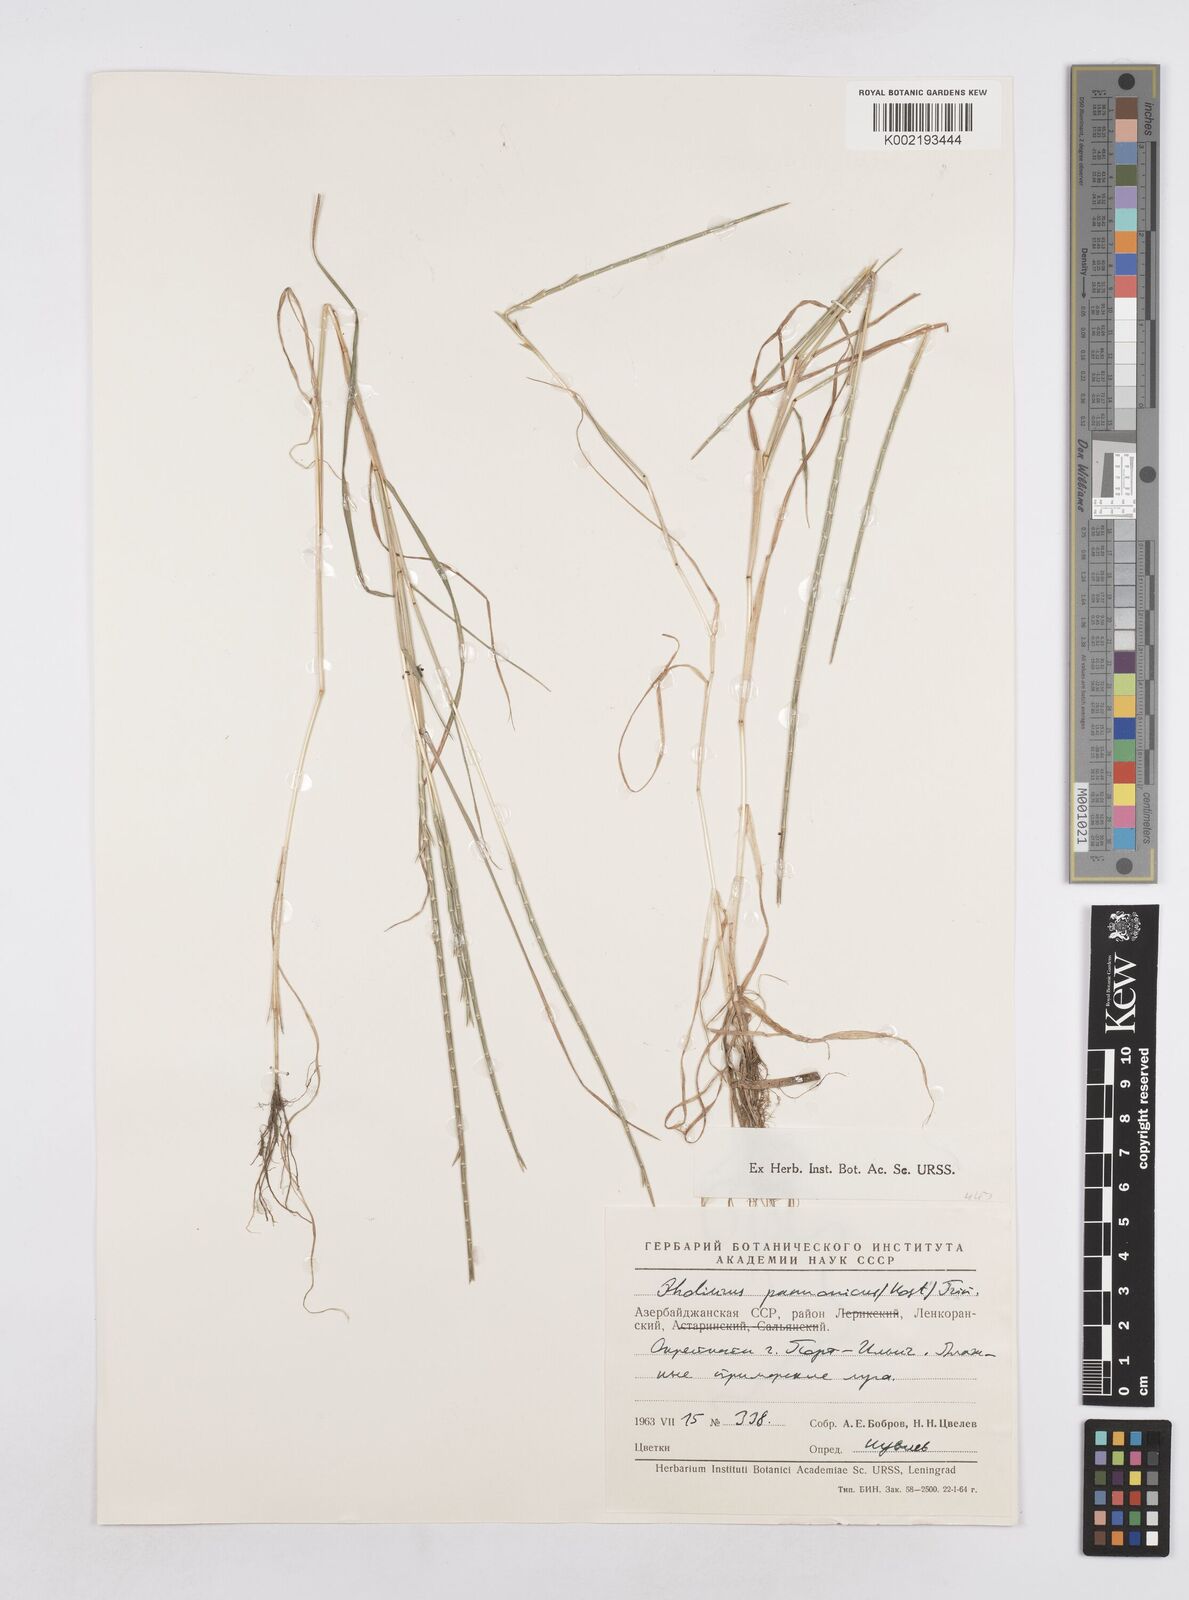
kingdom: Plantae
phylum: Tracheophyta
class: Liliopsida
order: Poales
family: Poaceae
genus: Pholiurus
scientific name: Pholiurus pannonicus
